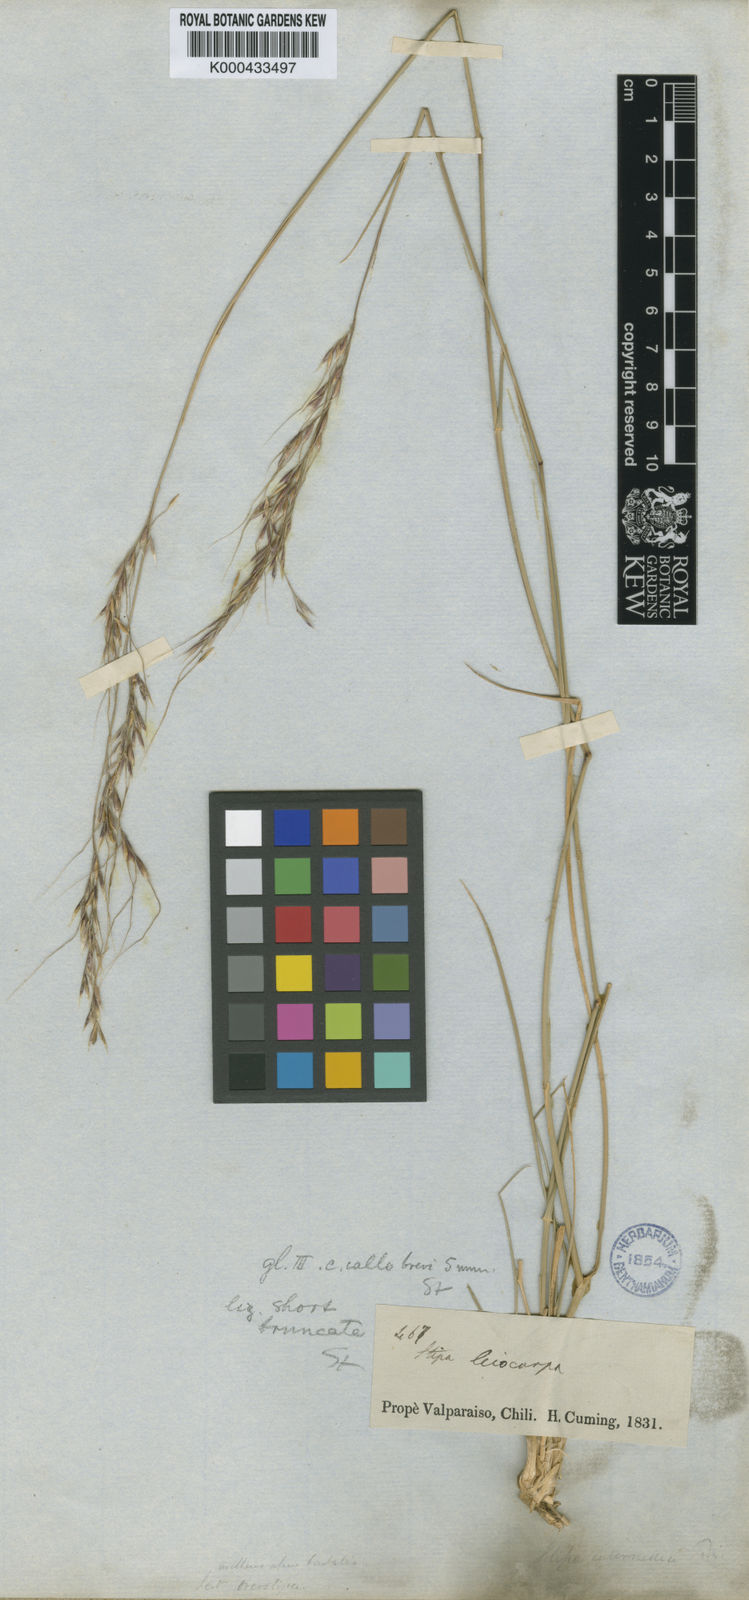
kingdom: Plantae
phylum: Tracheophyta
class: Liliopsida
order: Poales
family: Poaceae
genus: Nassella
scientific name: Nassella lachnophylla
